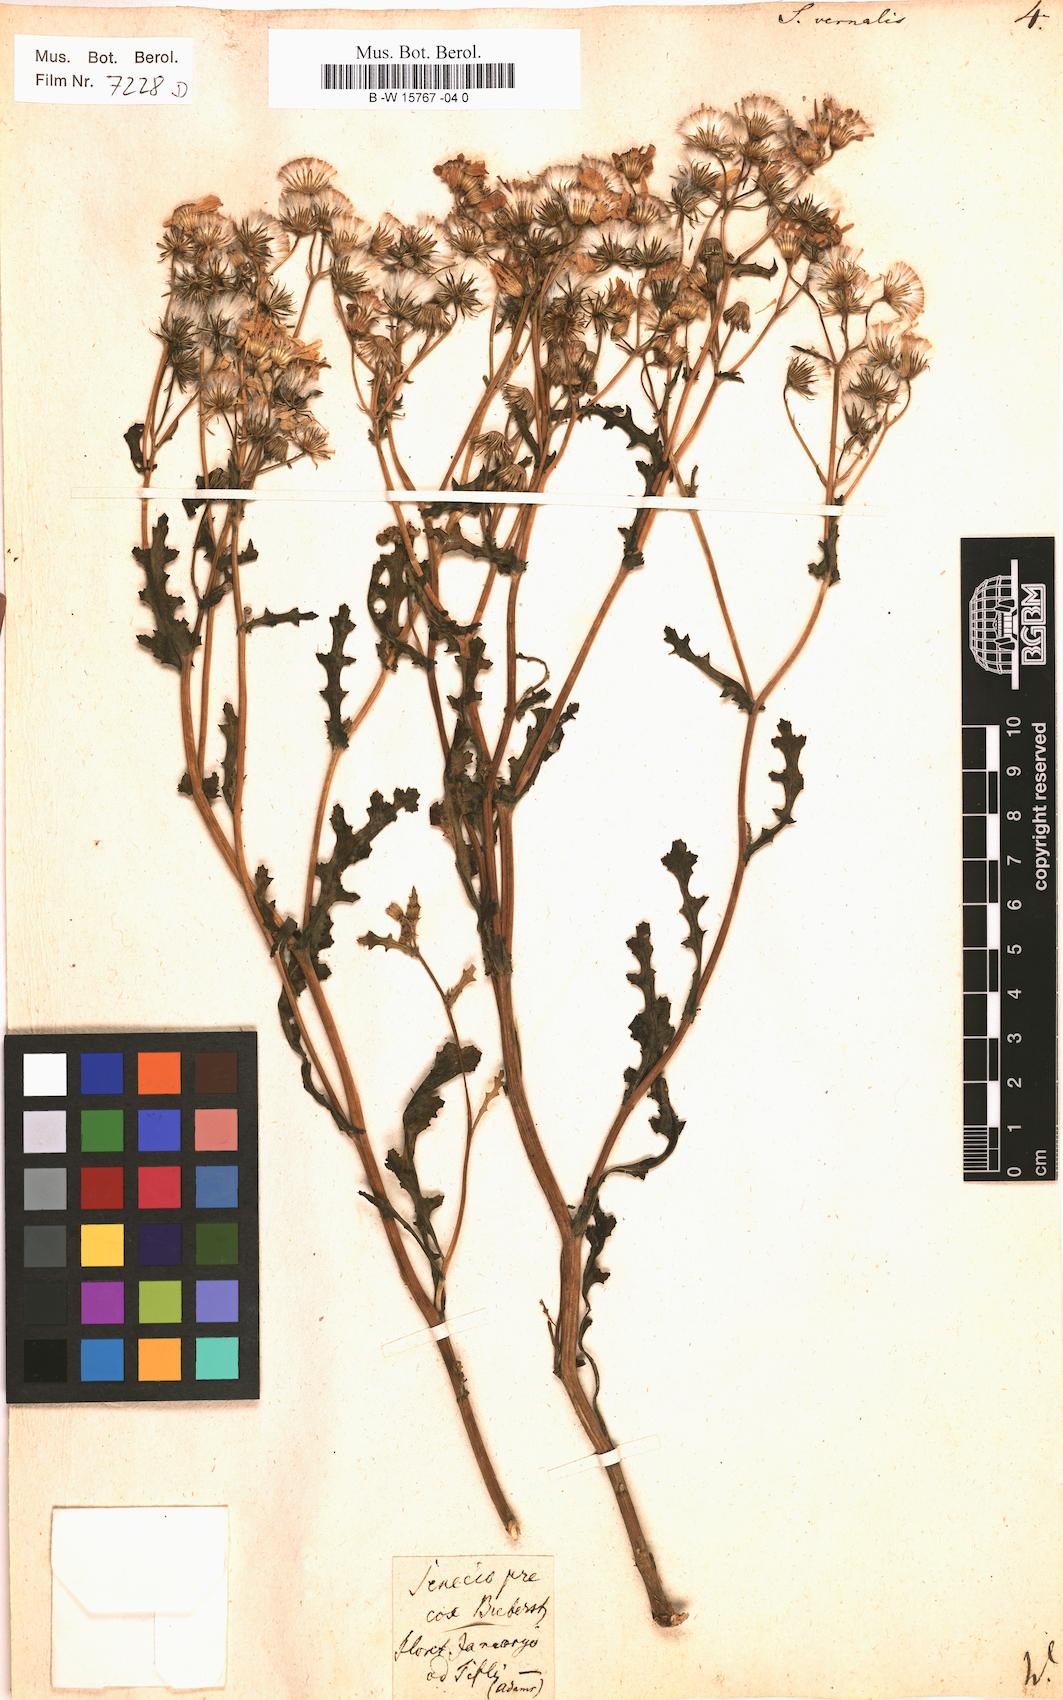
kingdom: Plantae
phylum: Tracheophyta
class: Magnoliopsida
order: Asterales
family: Asteraceae
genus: Senecio
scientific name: Senecio vernalis
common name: Eastern groundsel
